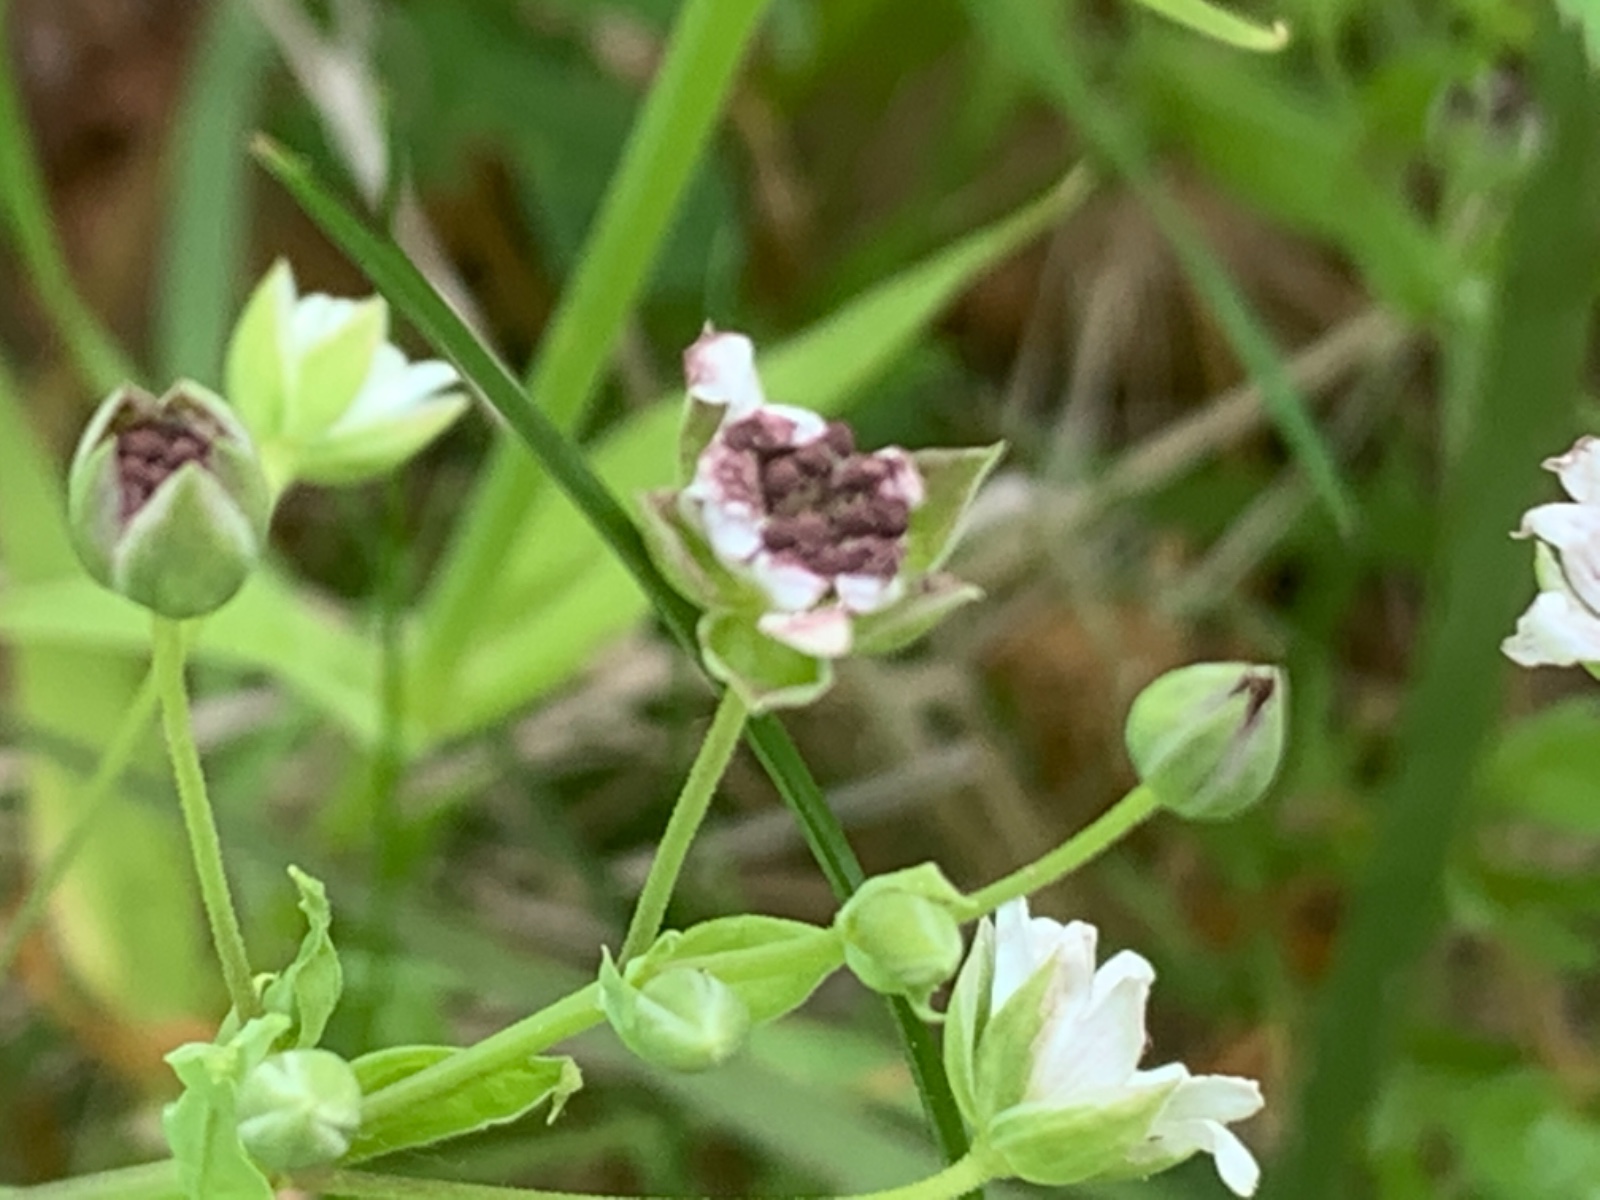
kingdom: Fungi
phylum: Basidiomycota
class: Microbotryomycetes
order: Microbotryales
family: Microbotryaceae
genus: Microbotryum
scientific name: Microbotryum stellariae
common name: fladstjerne-støvbladrust
